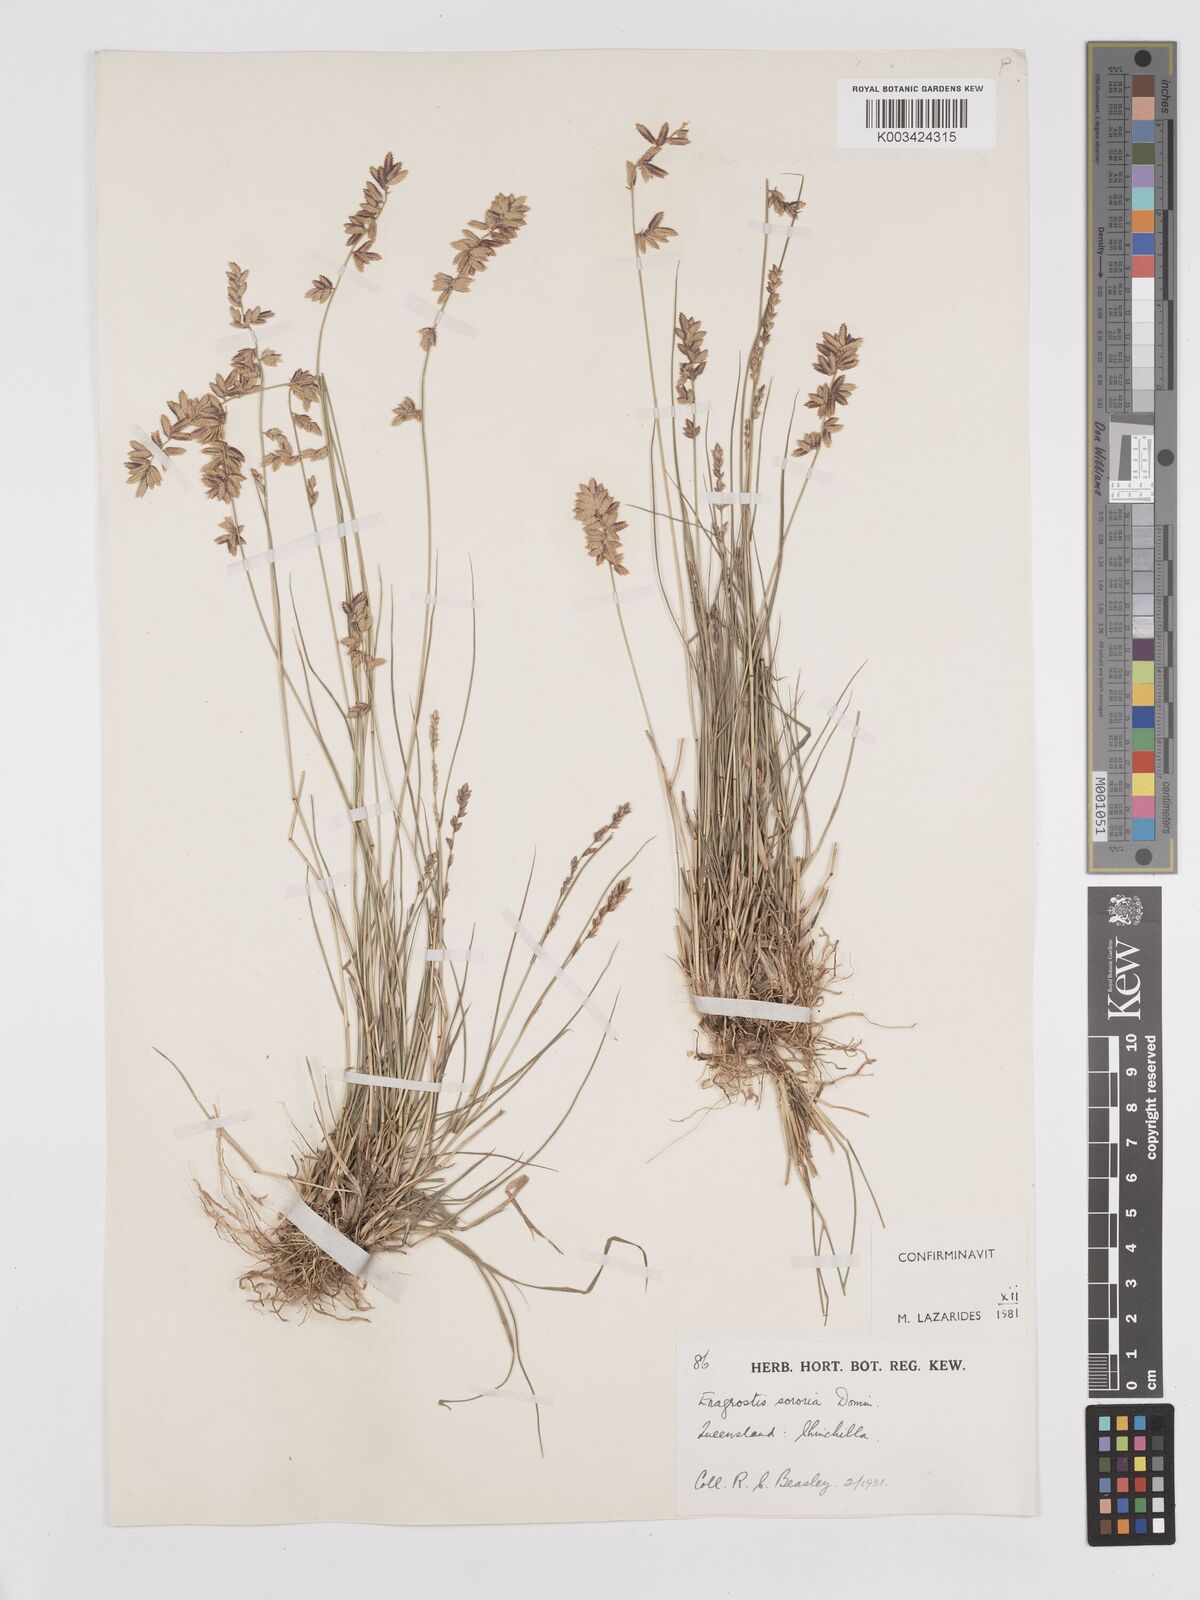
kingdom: Plantae
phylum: Tracheophyta
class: Liliopsida
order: Poales
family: Poaceae
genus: Eragrostis
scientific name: Eragrostis sororia
